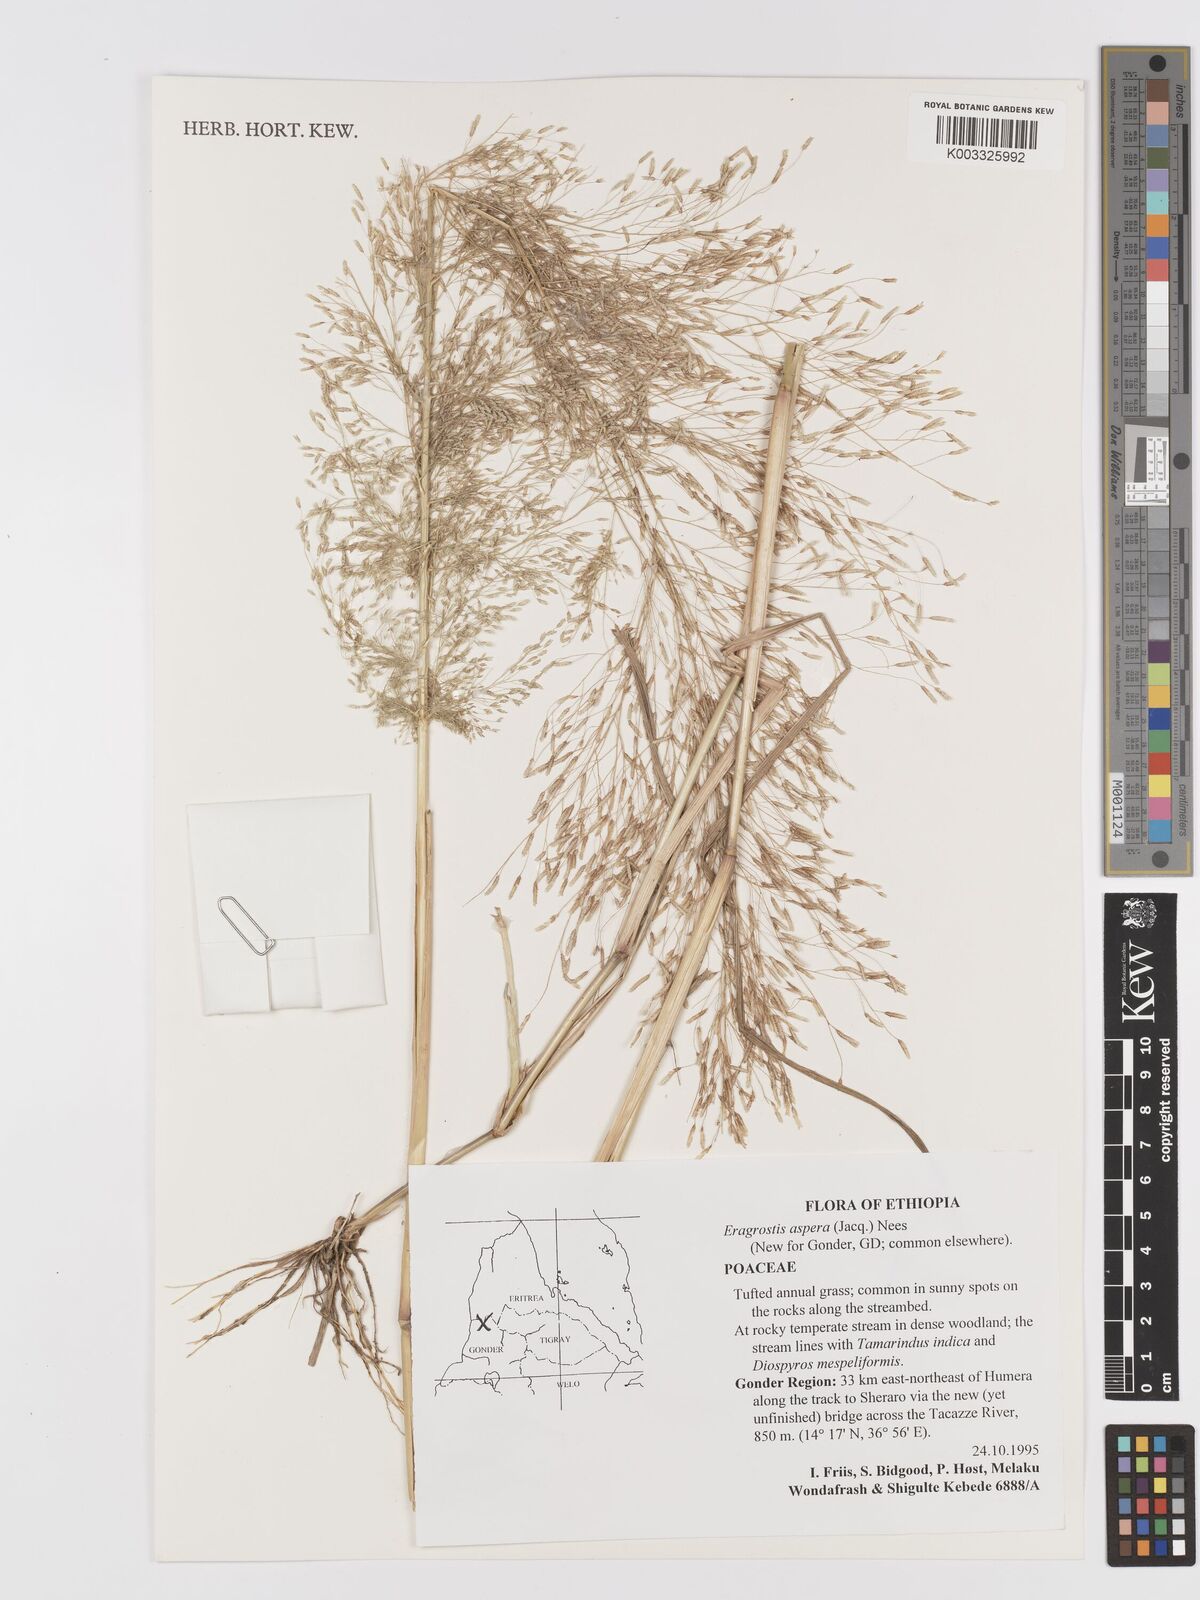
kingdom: Plantae
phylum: Tracheophyta
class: Liliopsida
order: Poales
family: Poaceae
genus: Eragrostis
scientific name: Eragrostis aspera
